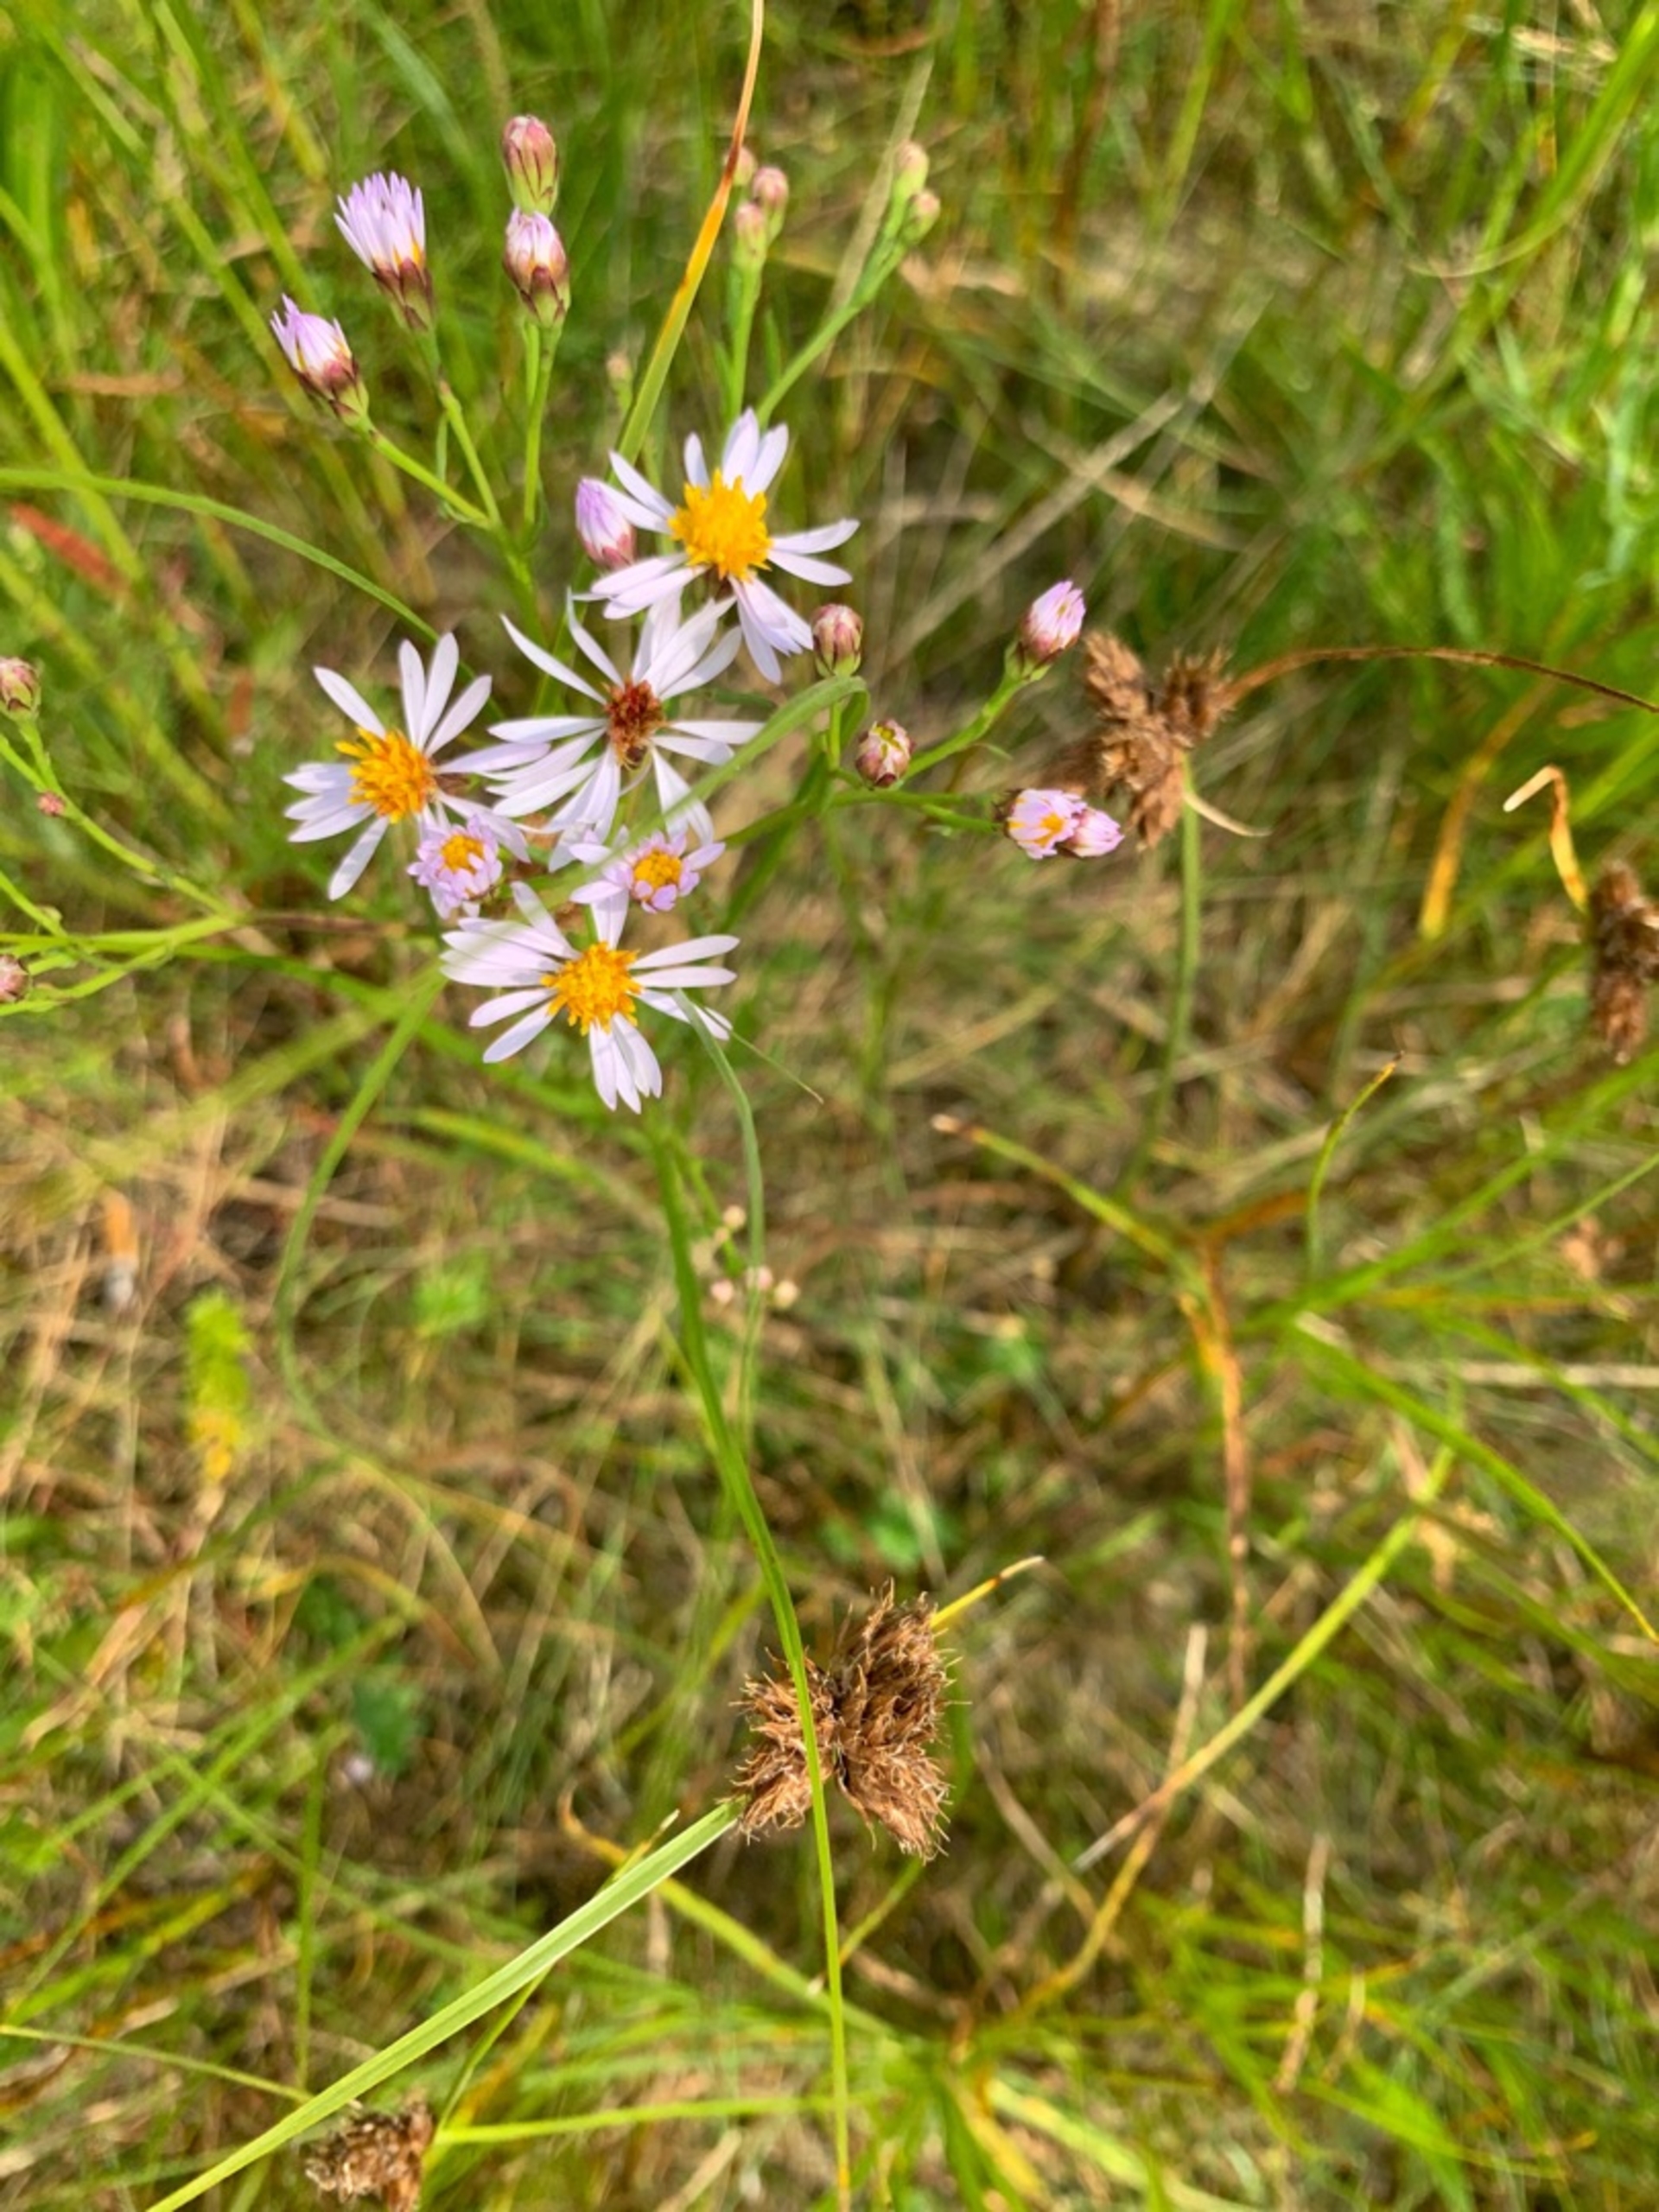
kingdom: Plantae
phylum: Tracheophyta
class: Magnoliopsida
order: Asterales
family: Asteraceae
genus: Tripolium
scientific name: Tripolium pannonicum
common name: Strandasters (underart)
